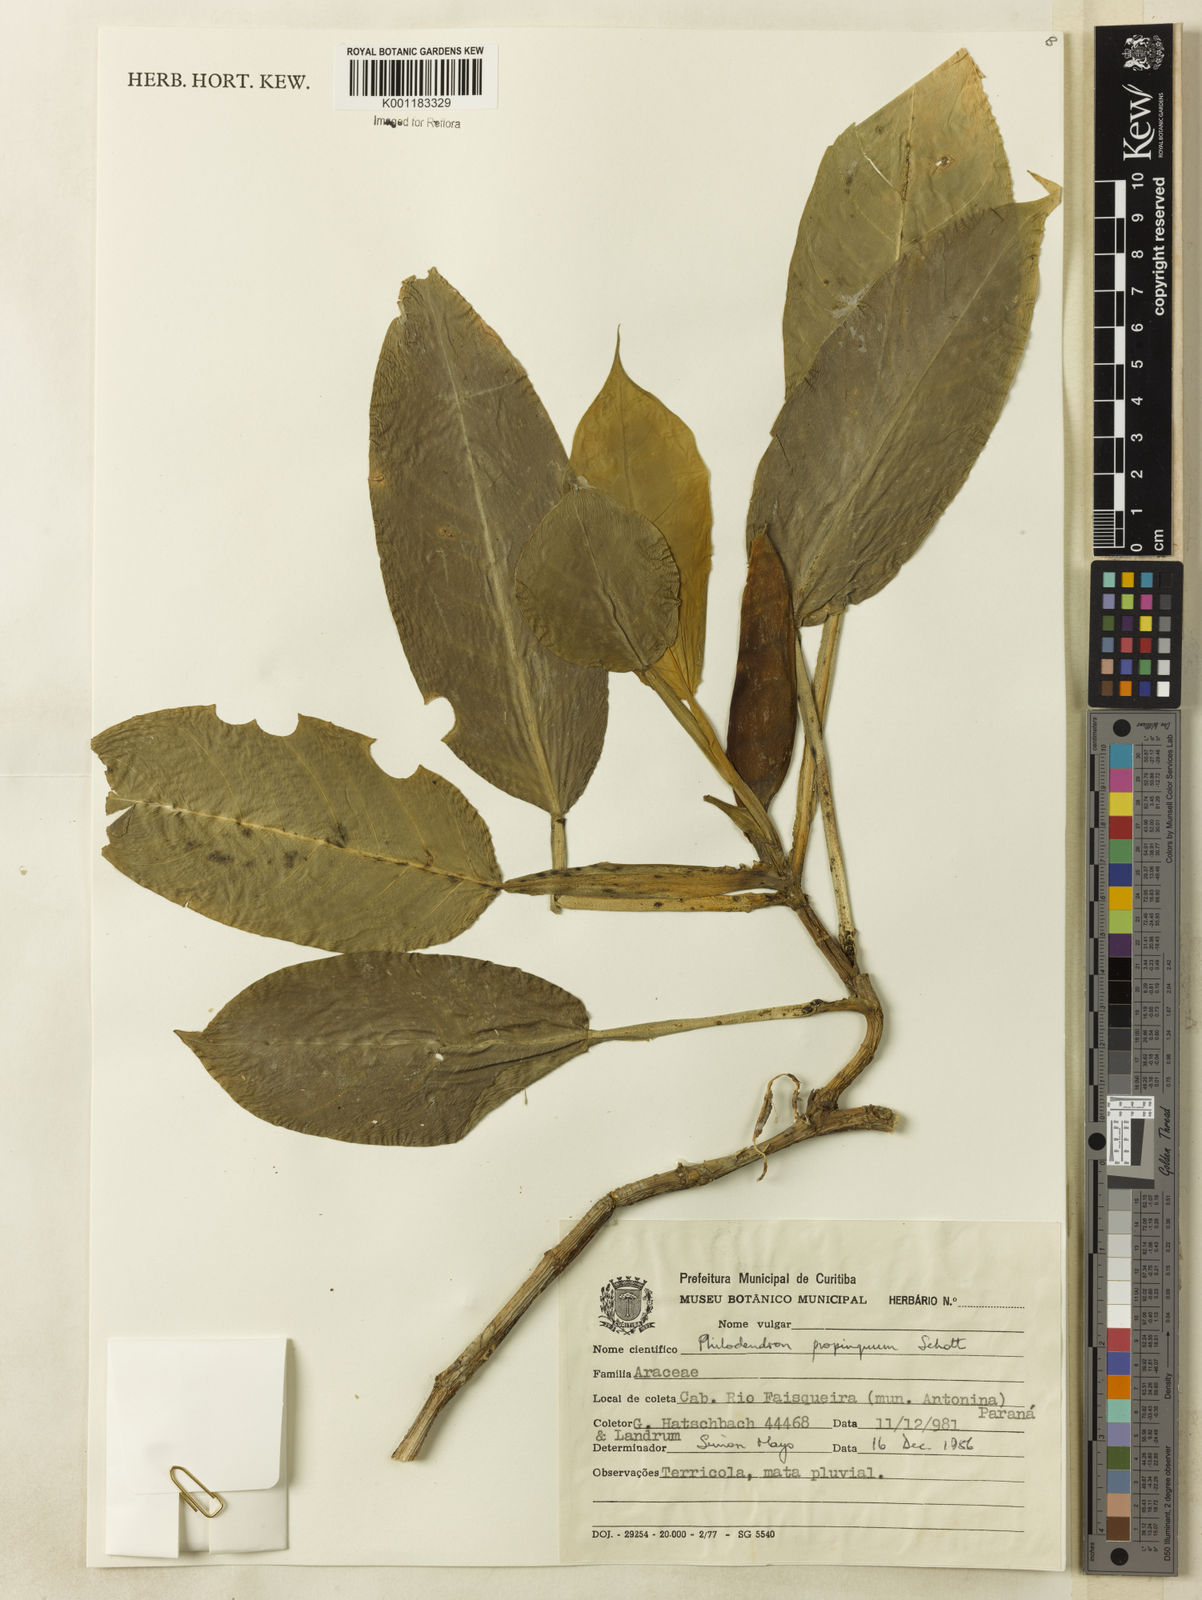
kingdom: Plantae
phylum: Tracheophyta
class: Liliopsida
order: Alismatales
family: Araceae
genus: Philodendron
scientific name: Philodendron propinquum
